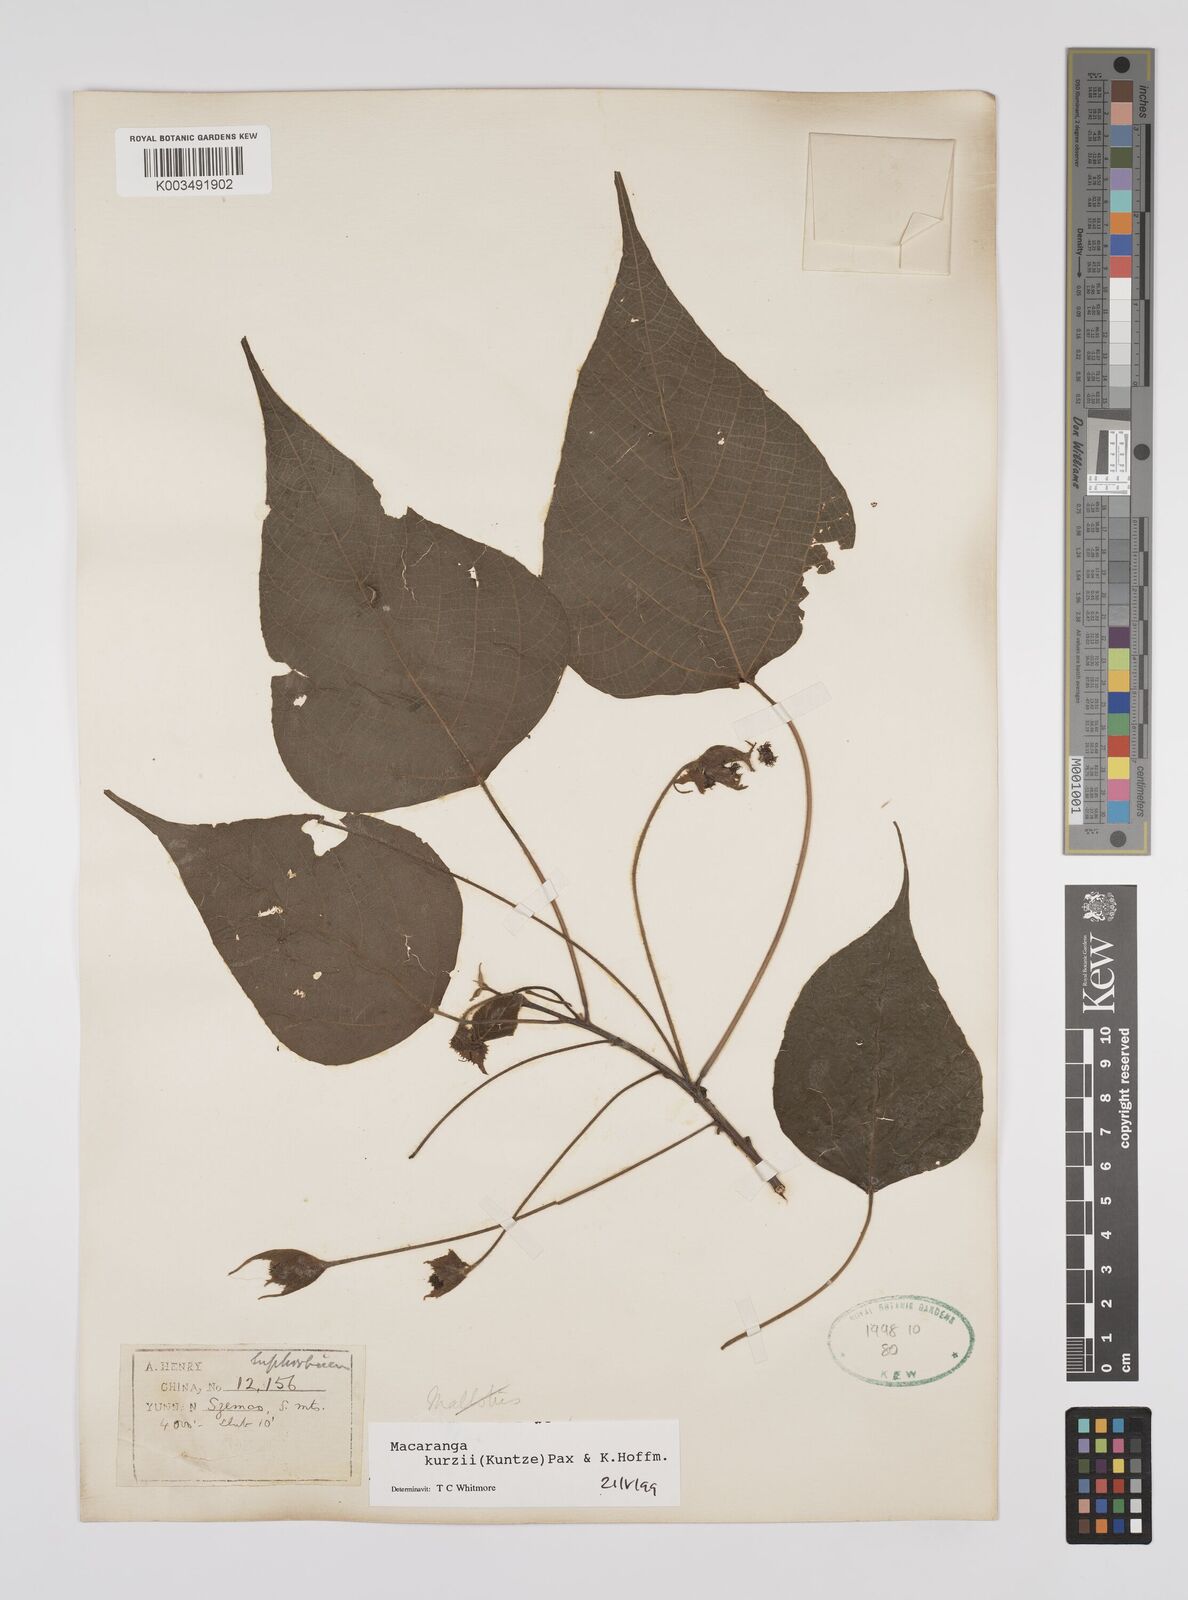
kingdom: Plantae
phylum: Tracheophyta
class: Magnoliopsida
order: Malpighiales
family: Euphorbiaceae
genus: Macaranga
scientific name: Macaranga kurzii
